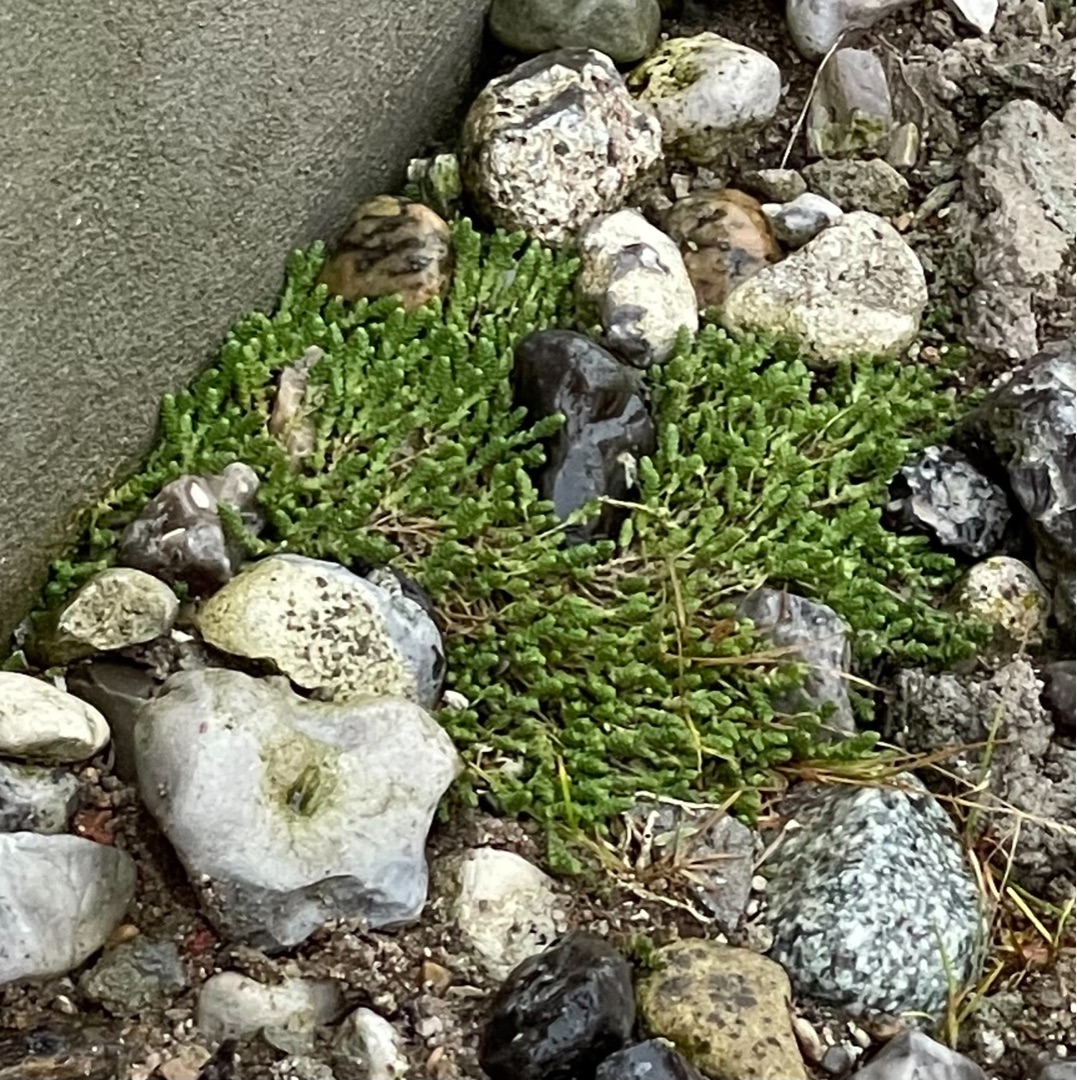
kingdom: Plantae
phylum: Tracheophyta
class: Magnoliopsida
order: Saxifragales
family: Crassulaceae
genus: Sedum
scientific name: Sedum acre
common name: Bidende stenurt
